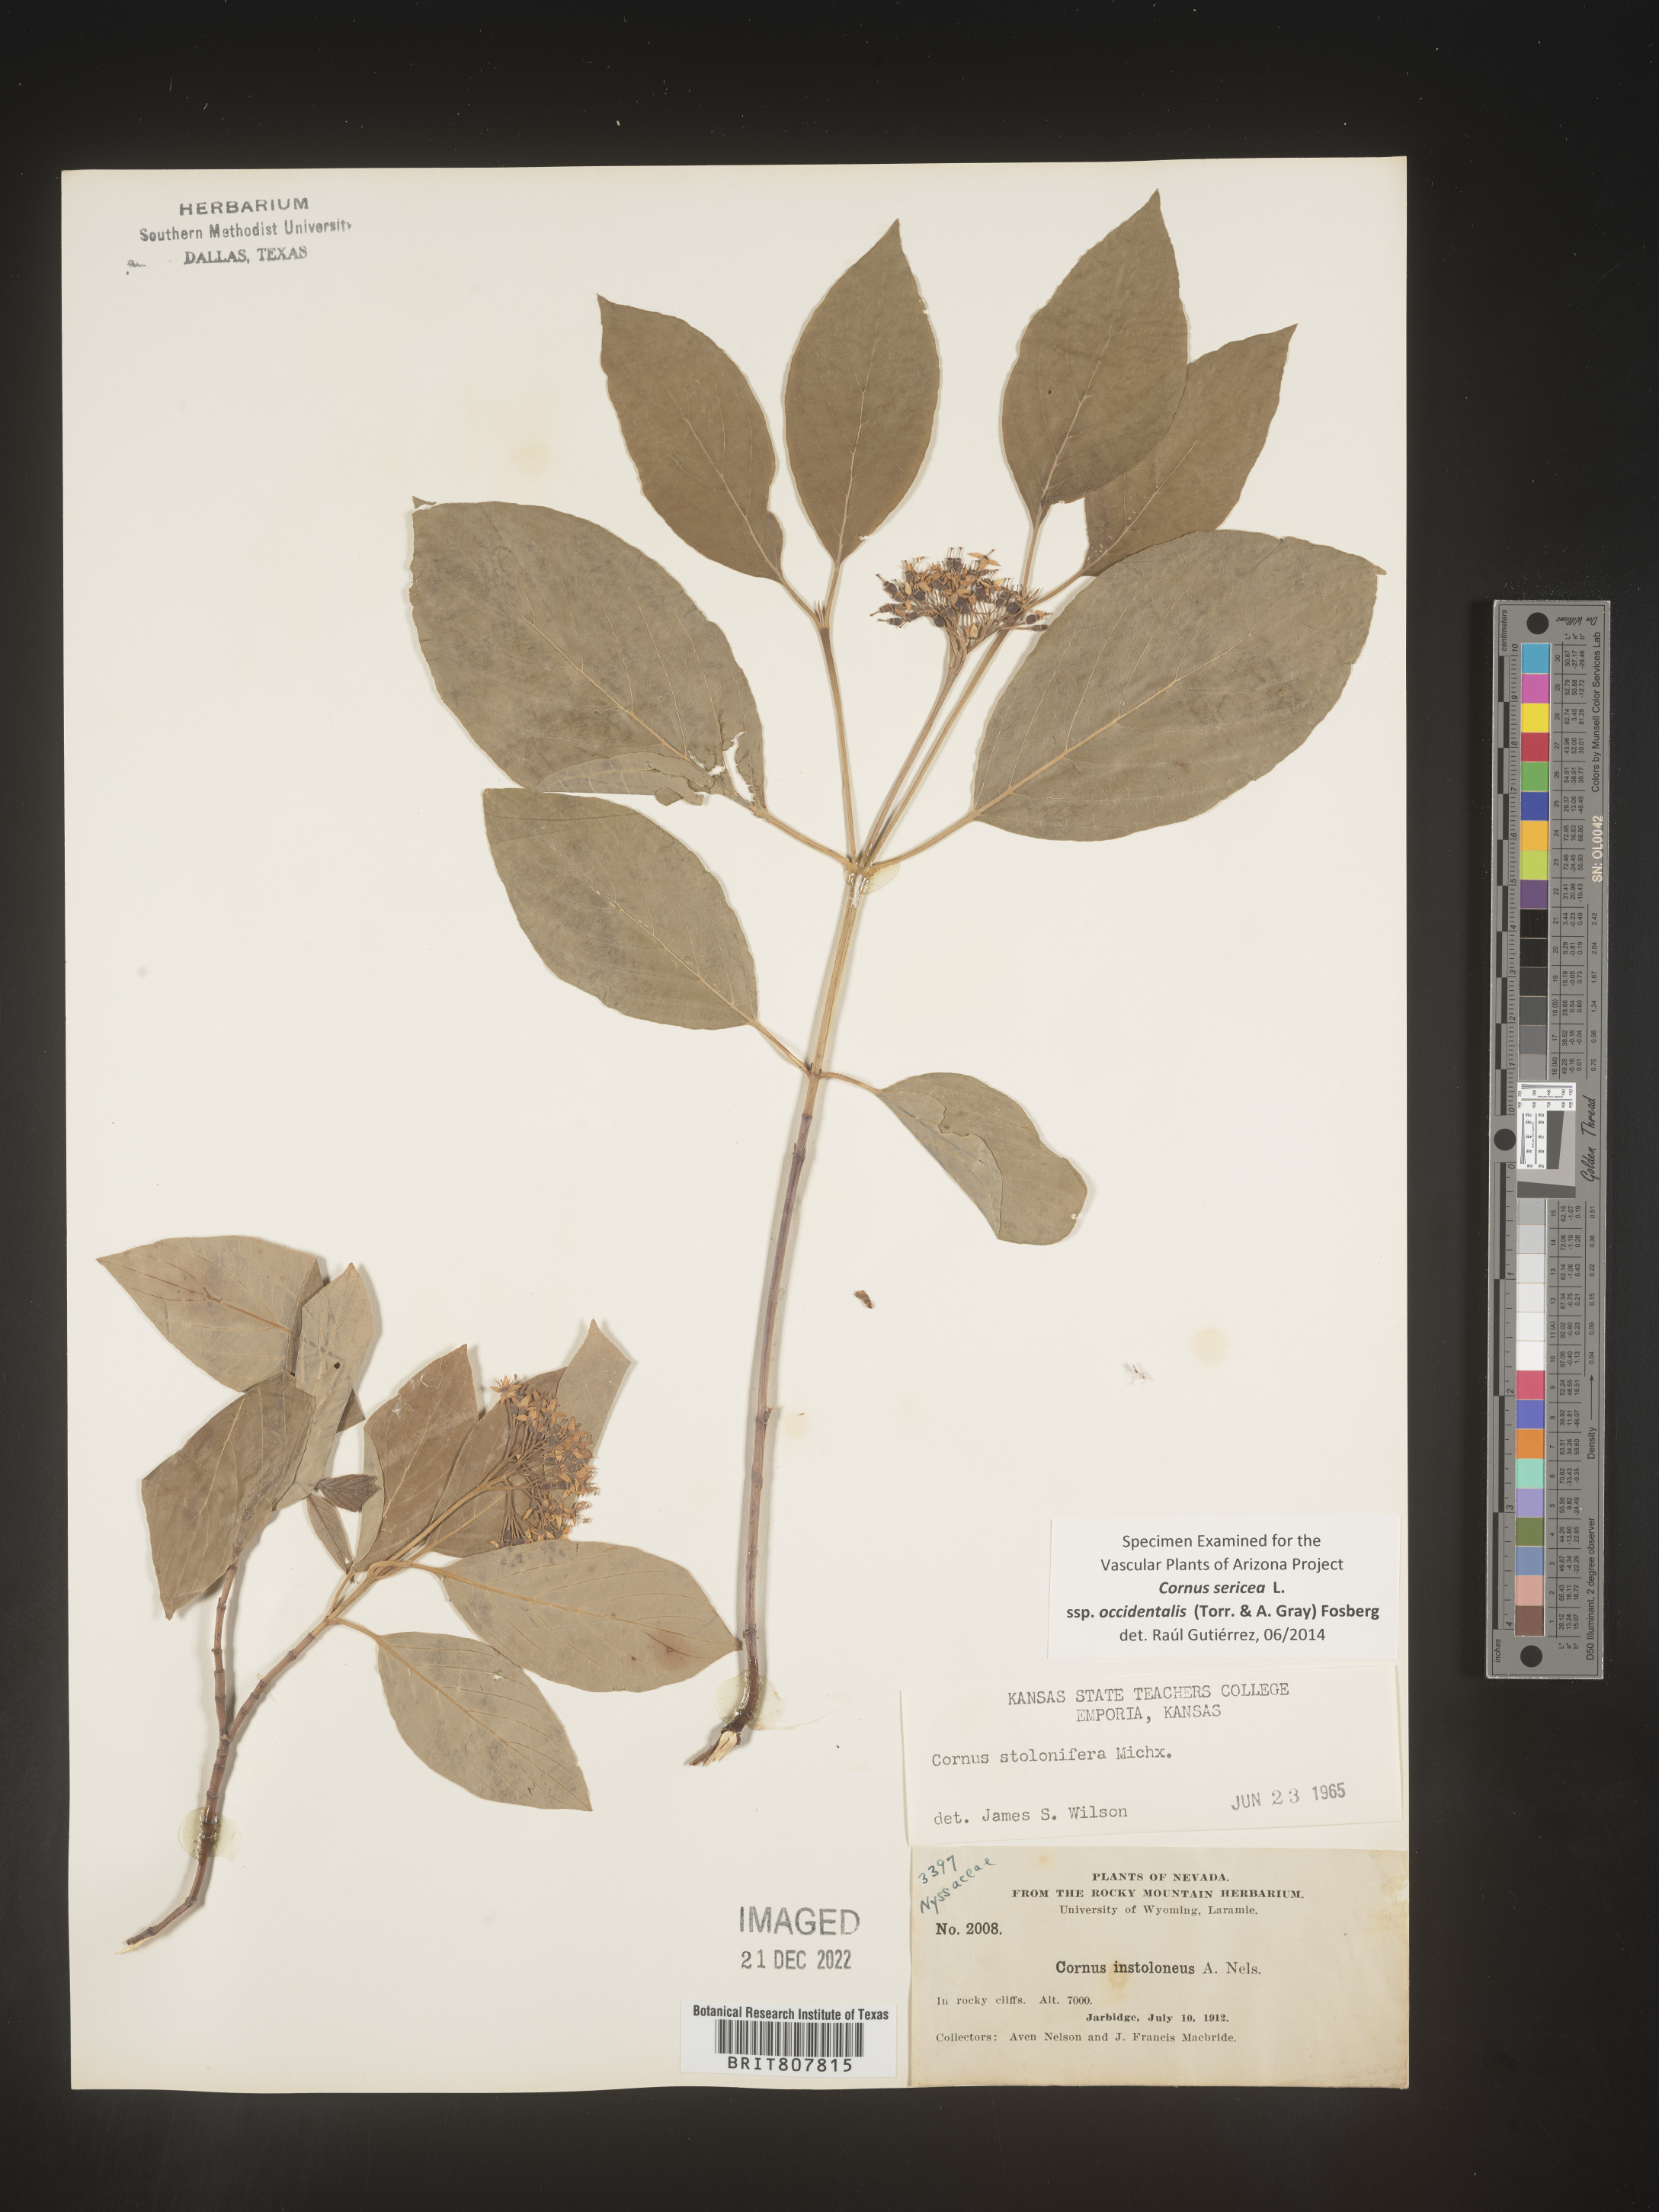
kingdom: Plantae
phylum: Tracheophyta
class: Magnoliopsida
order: Cornales
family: Cornaceae
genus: Cornus
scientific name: Cornus
